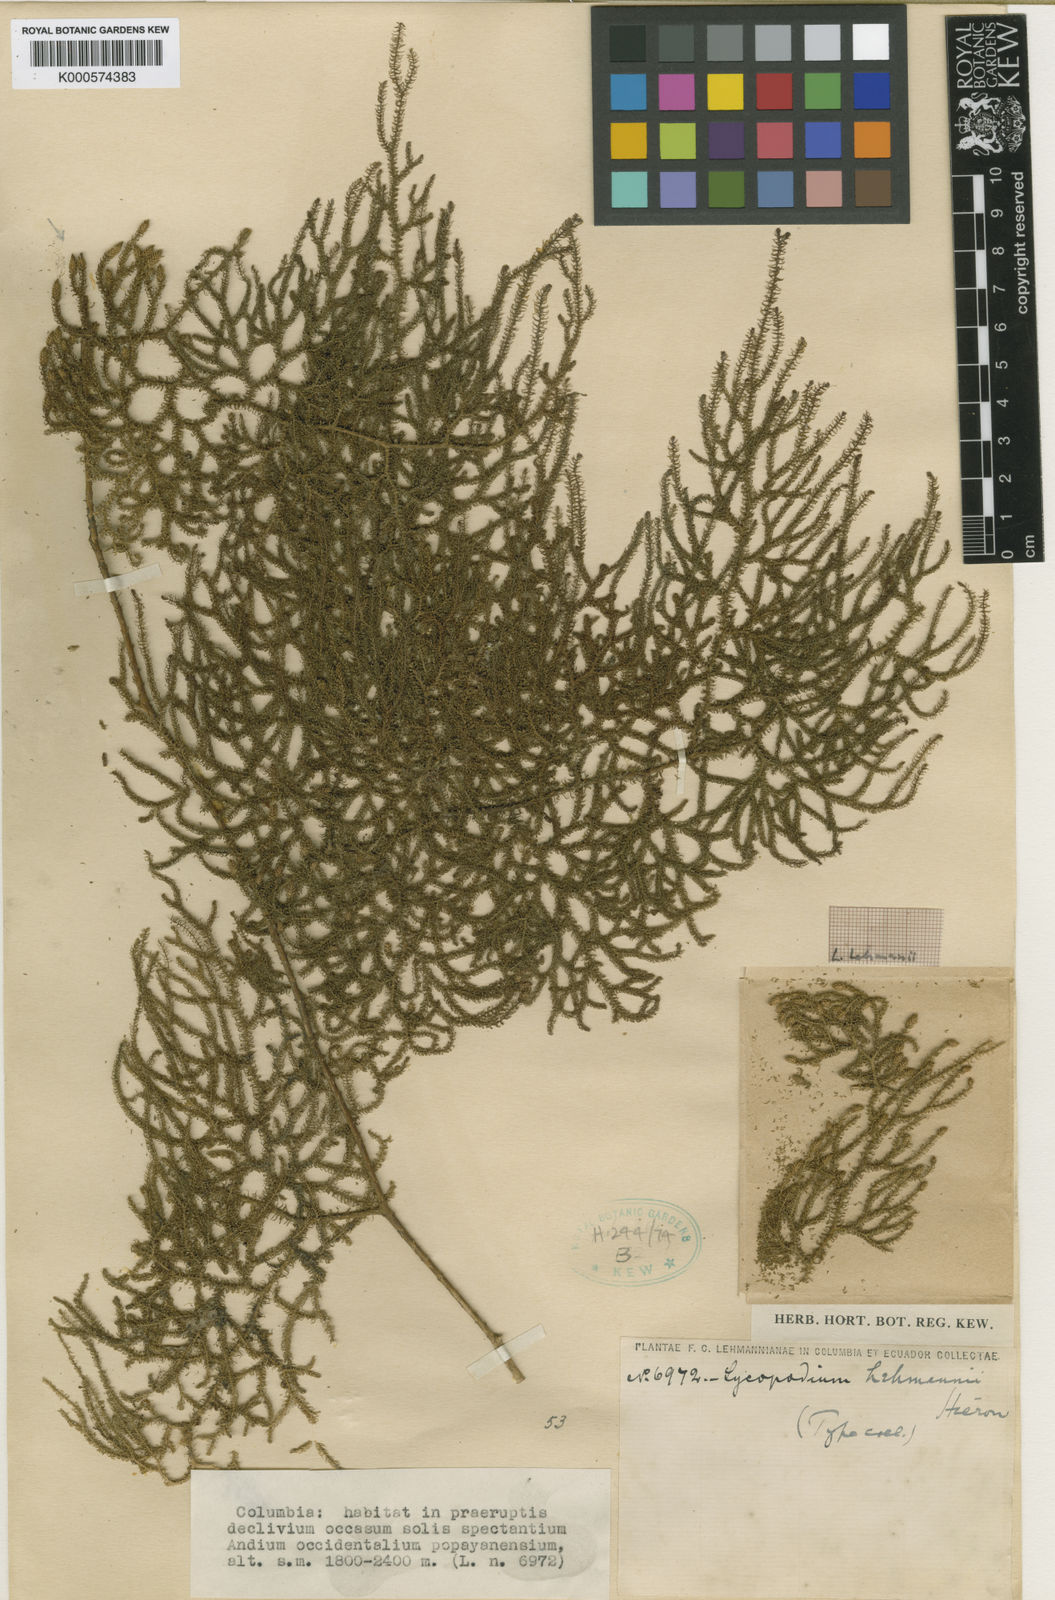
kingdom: Plantae
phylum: Tracheophyta
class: Lycopodiopsida
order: Lycopodiales
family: Lycopodiaceae
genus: Palhinhaea
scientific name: Palhinhaea lehmannii
